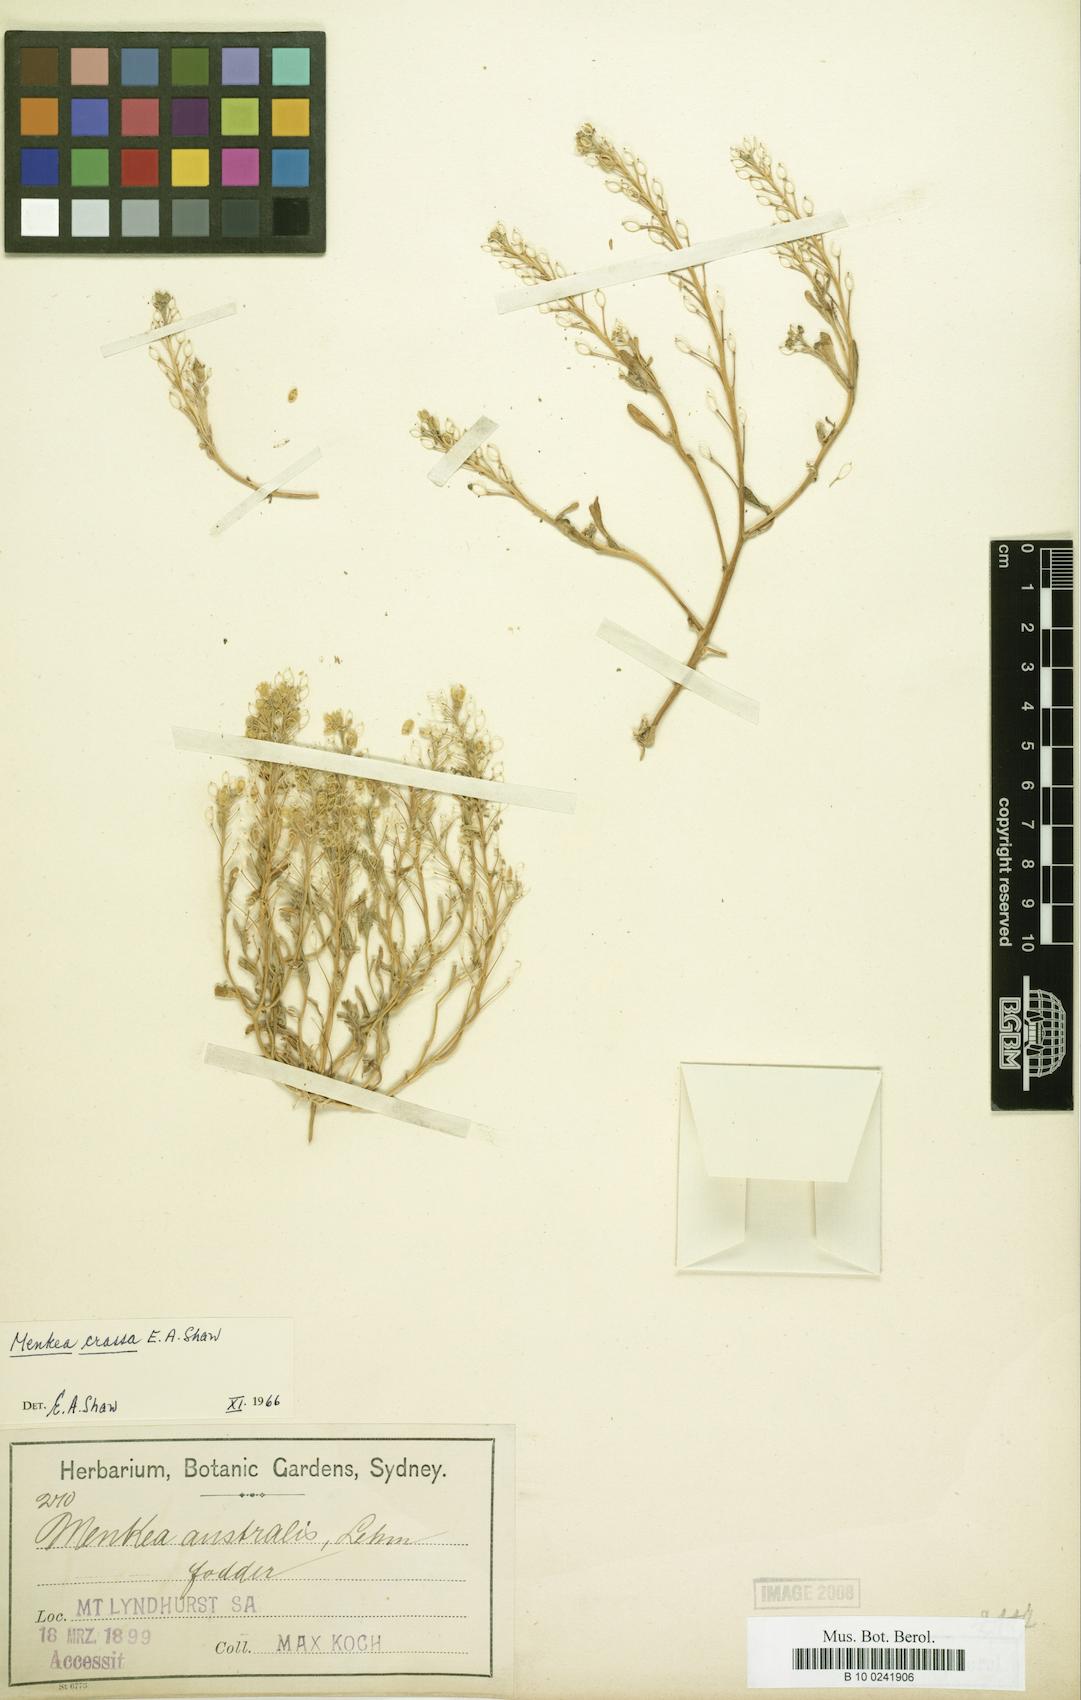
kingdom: Plantae
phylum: Tracheophyta
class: Magnoliopsida
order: Brassicales
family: Brassicaceae
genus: Menkea
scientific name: Menkea crassa
